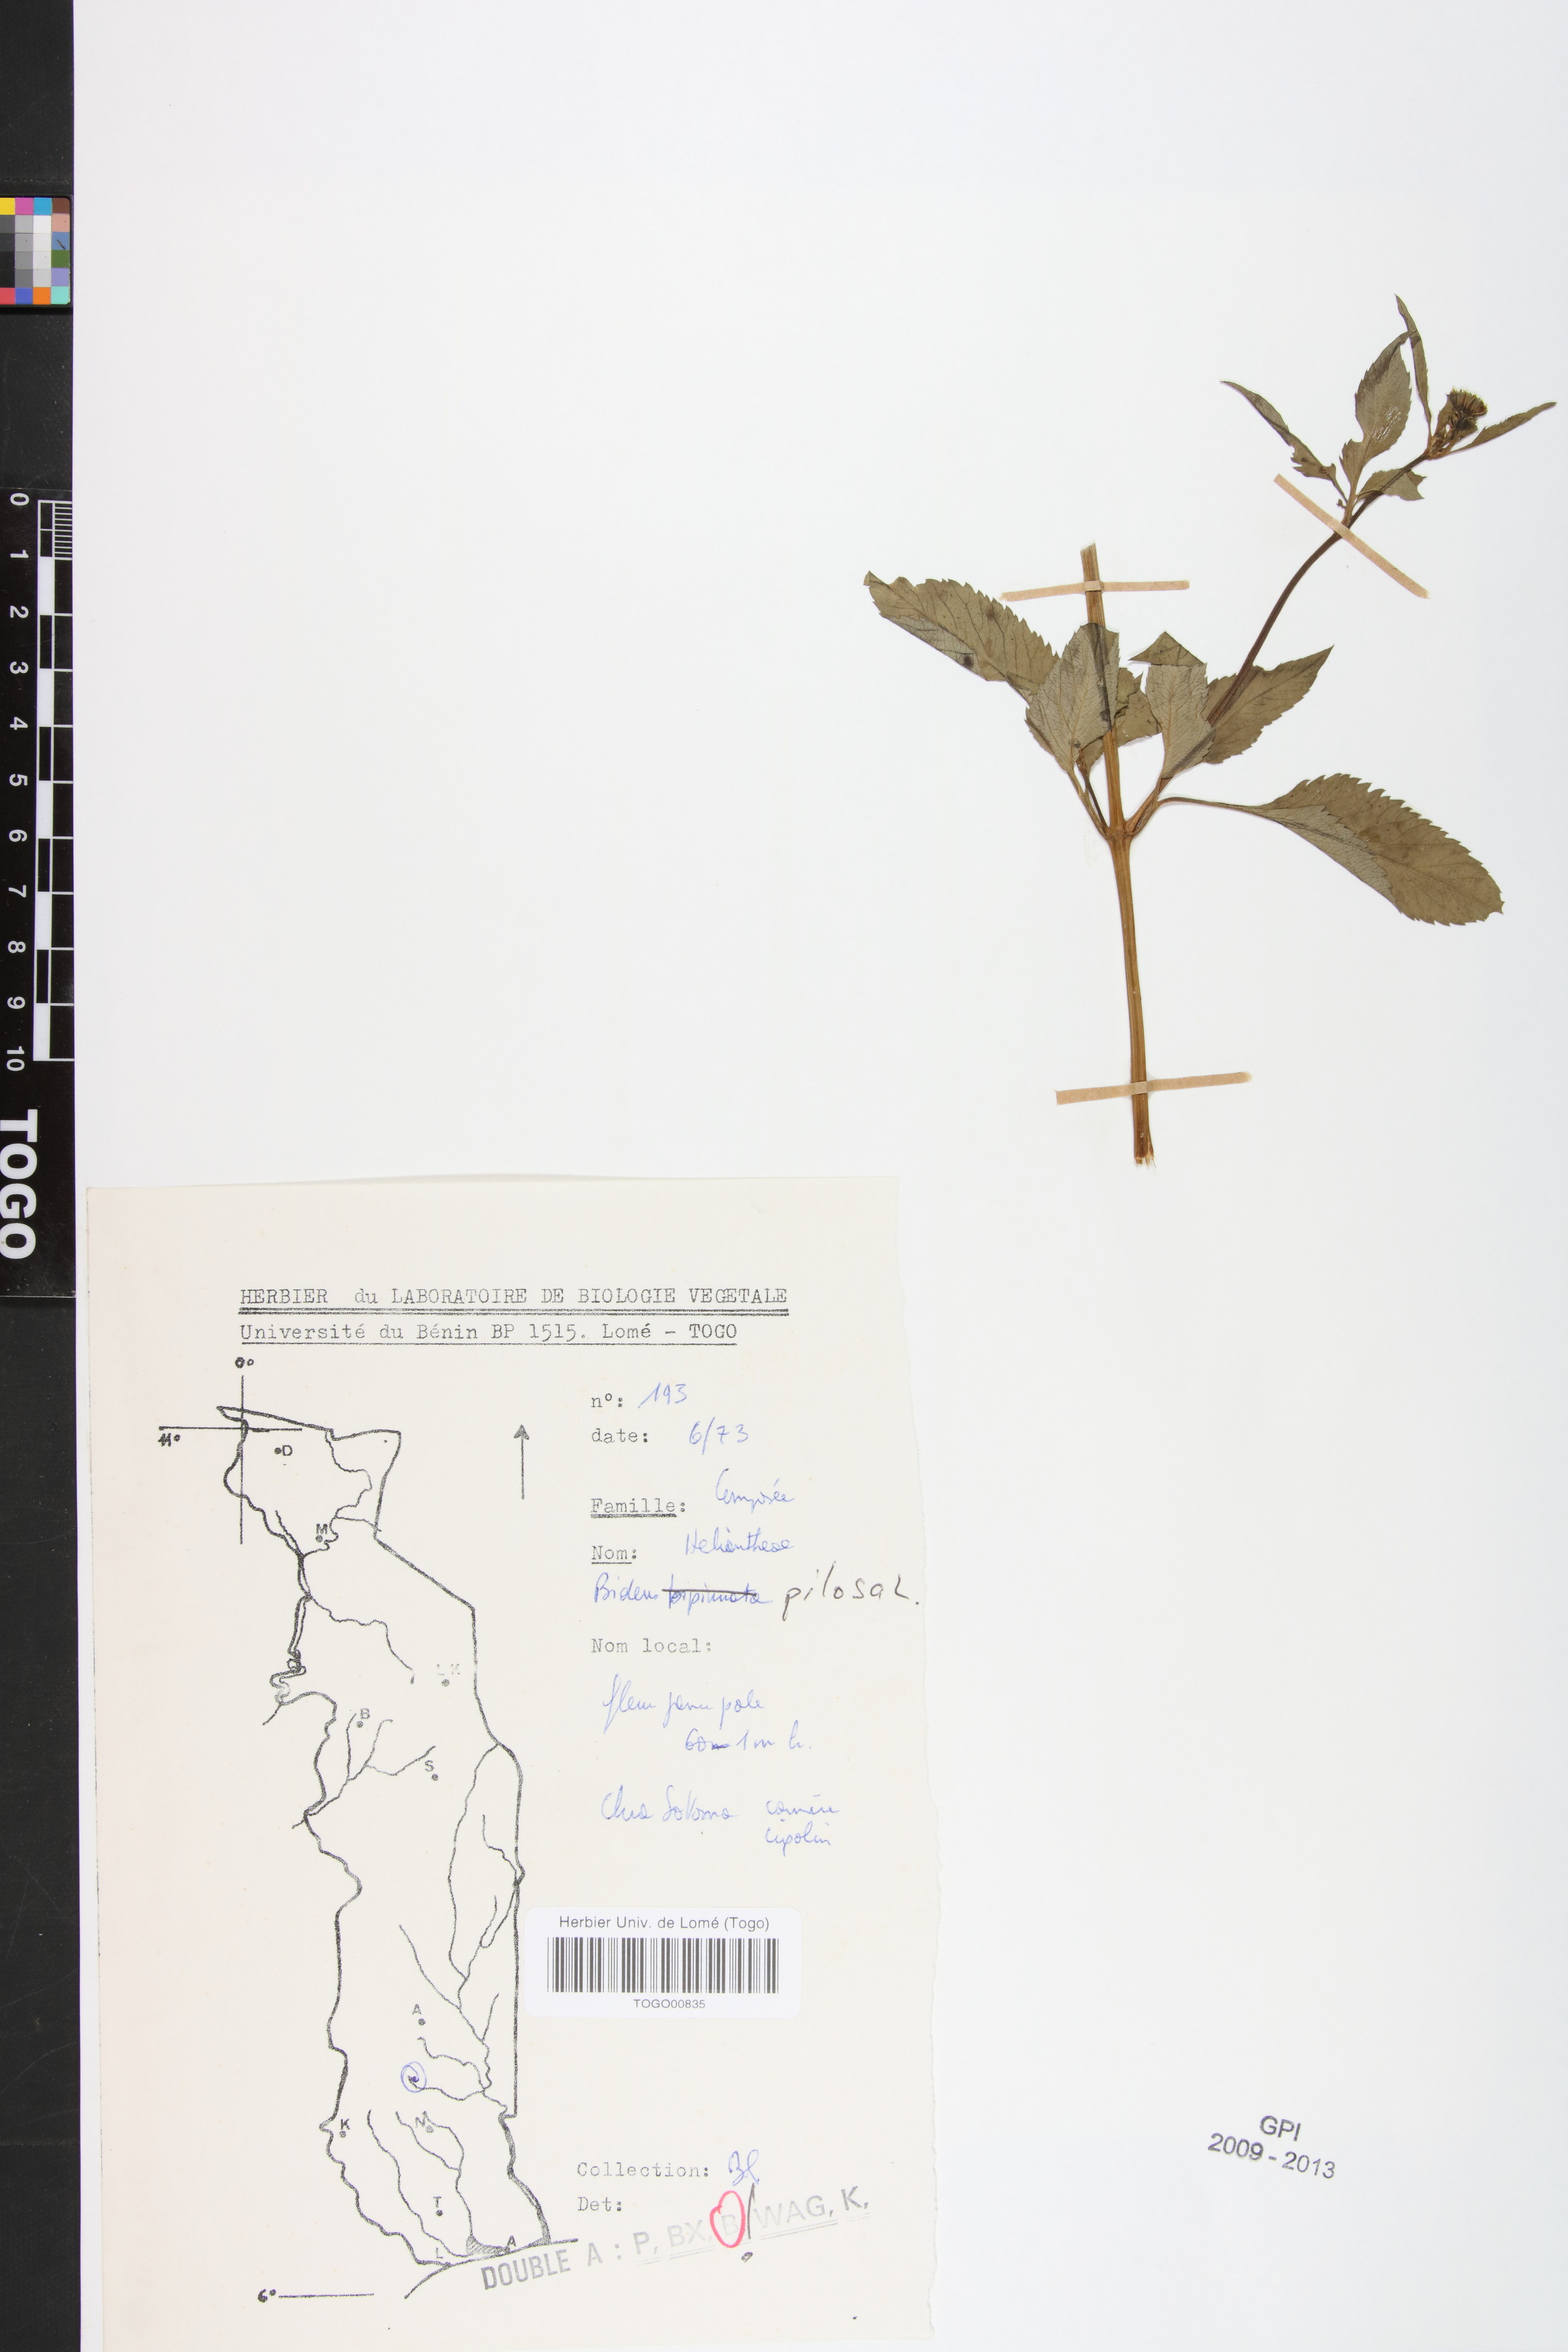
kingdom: Plantae
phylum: Tracheophyta
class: Magnoliopsida
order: Asterales
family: Asteraceae
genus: Bidens
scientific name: Bidens pilosa
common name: Black-jack
